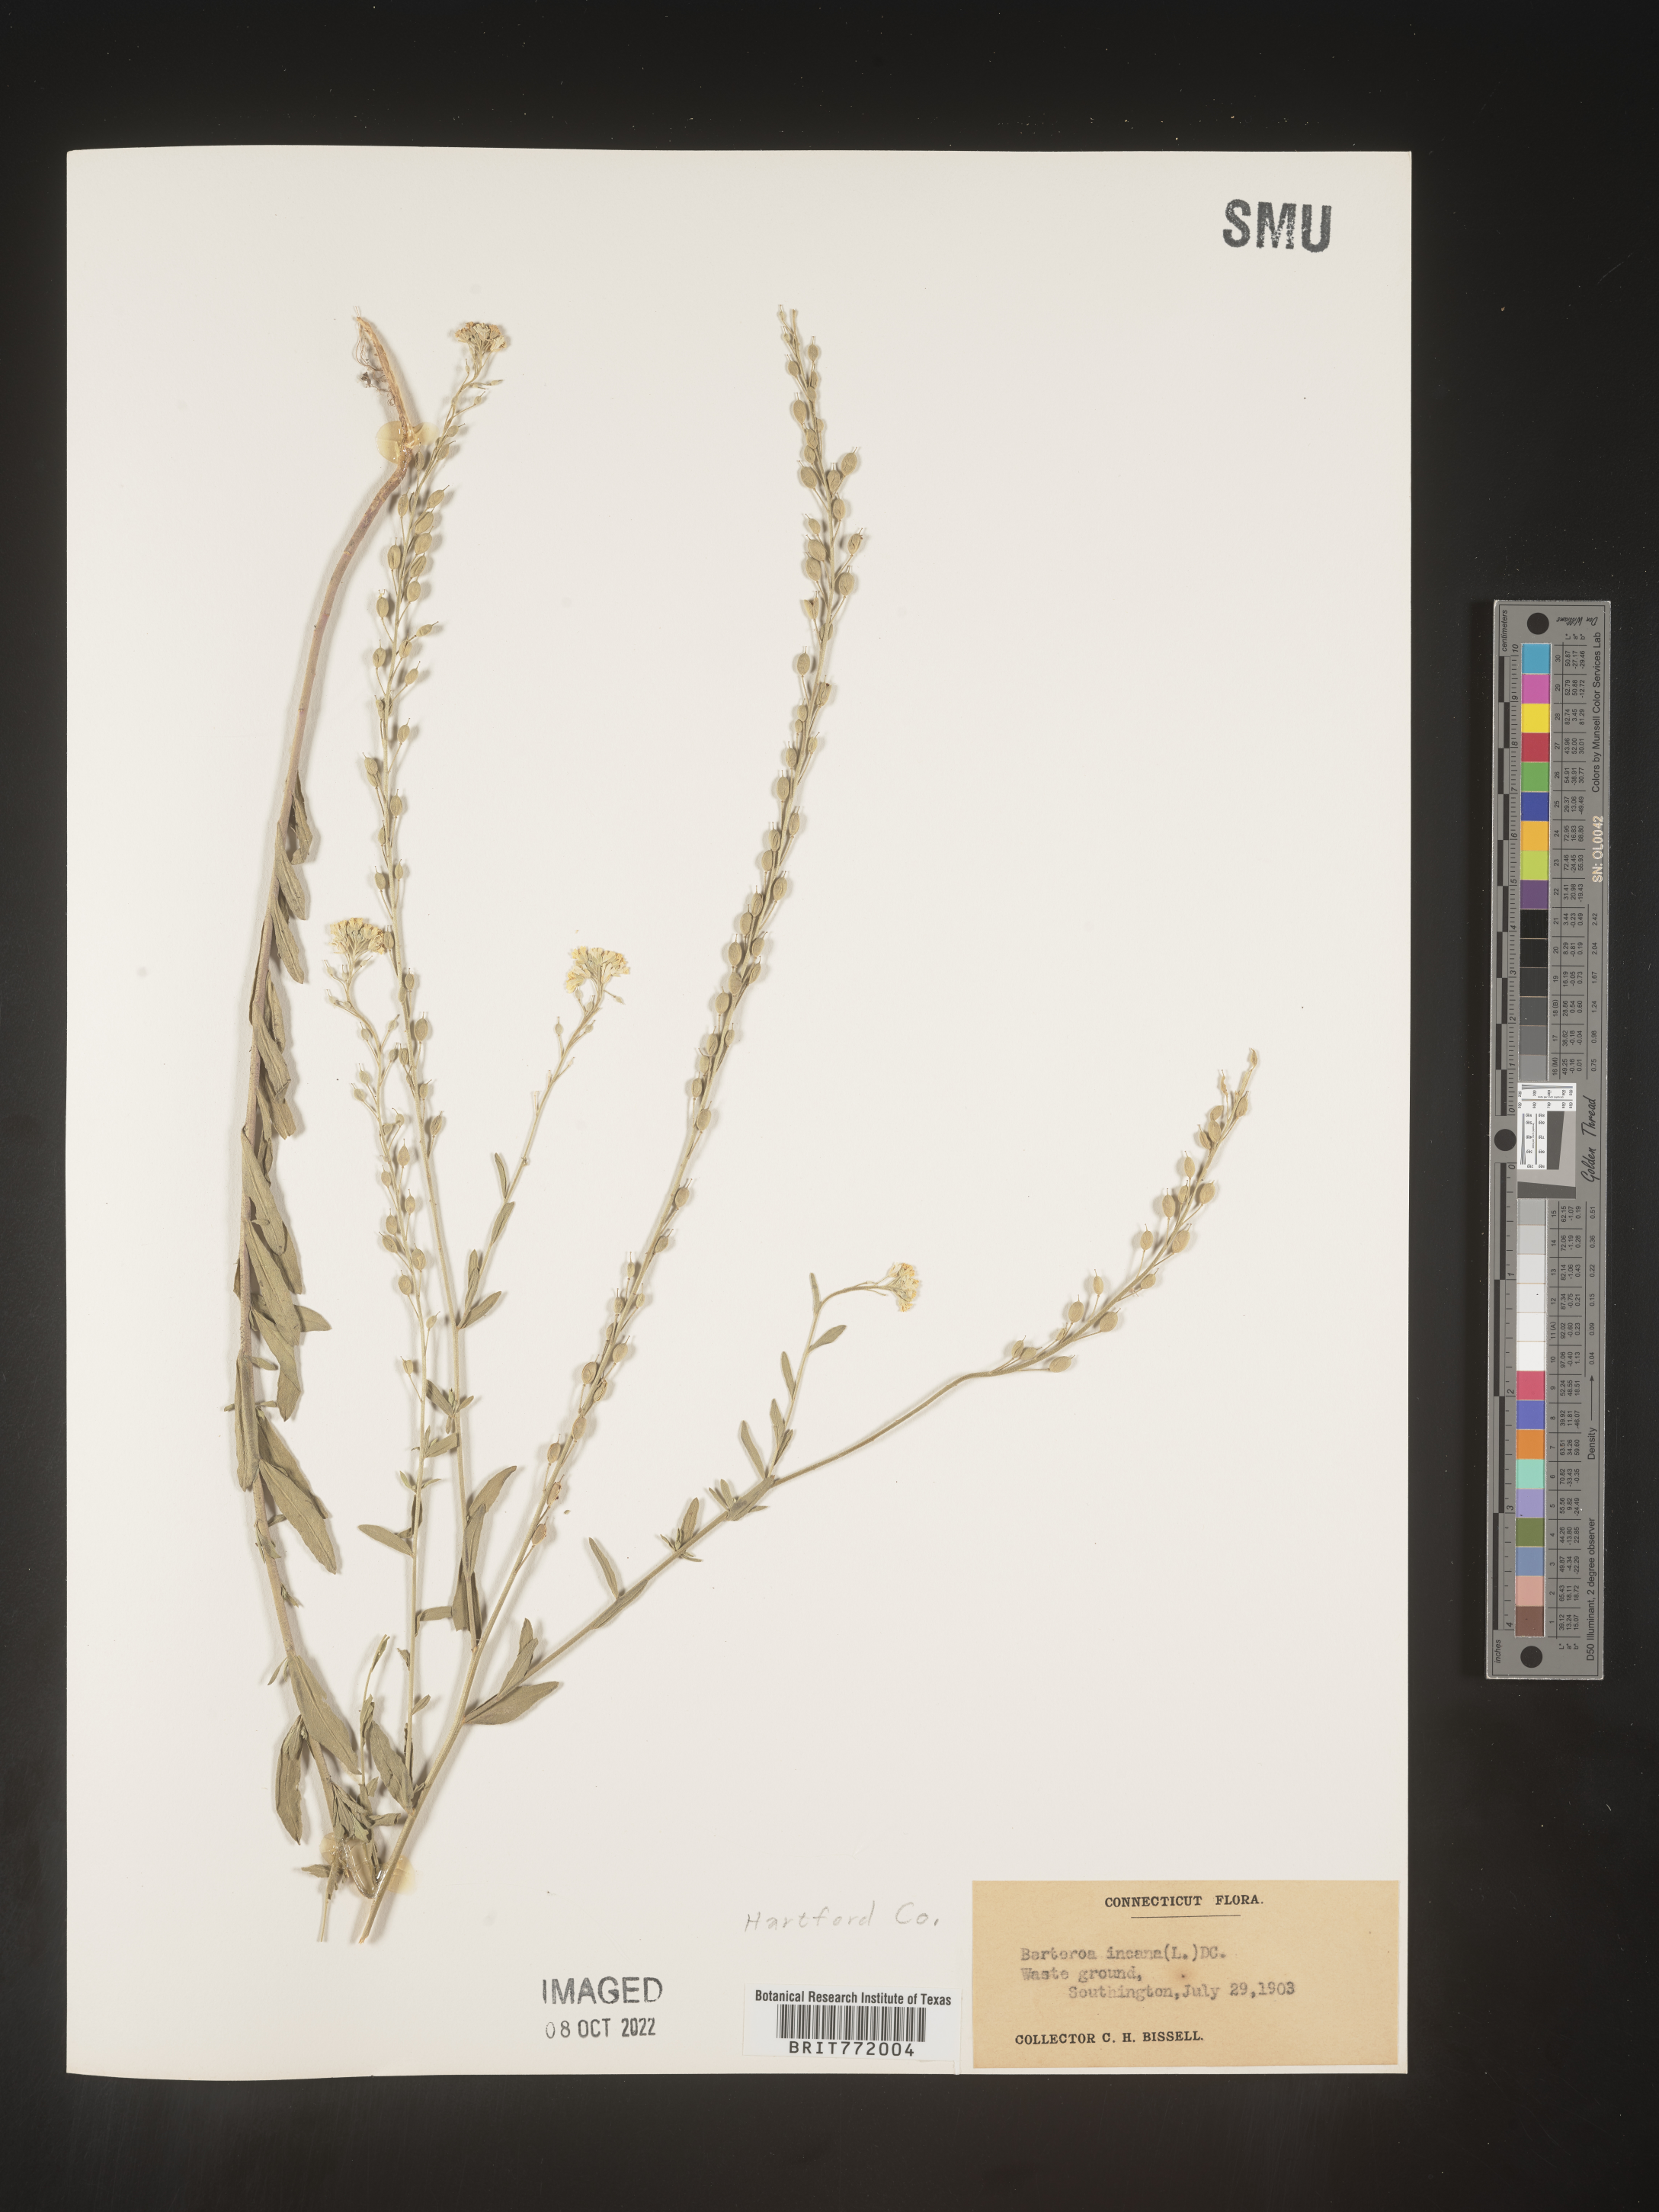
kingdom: Plantae
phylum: Tracheophyta
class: Magnoliopsida
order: Brassicales
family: Brassicaceae
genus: Berteroa
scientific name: Berteroa incana
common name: Hoary alison
